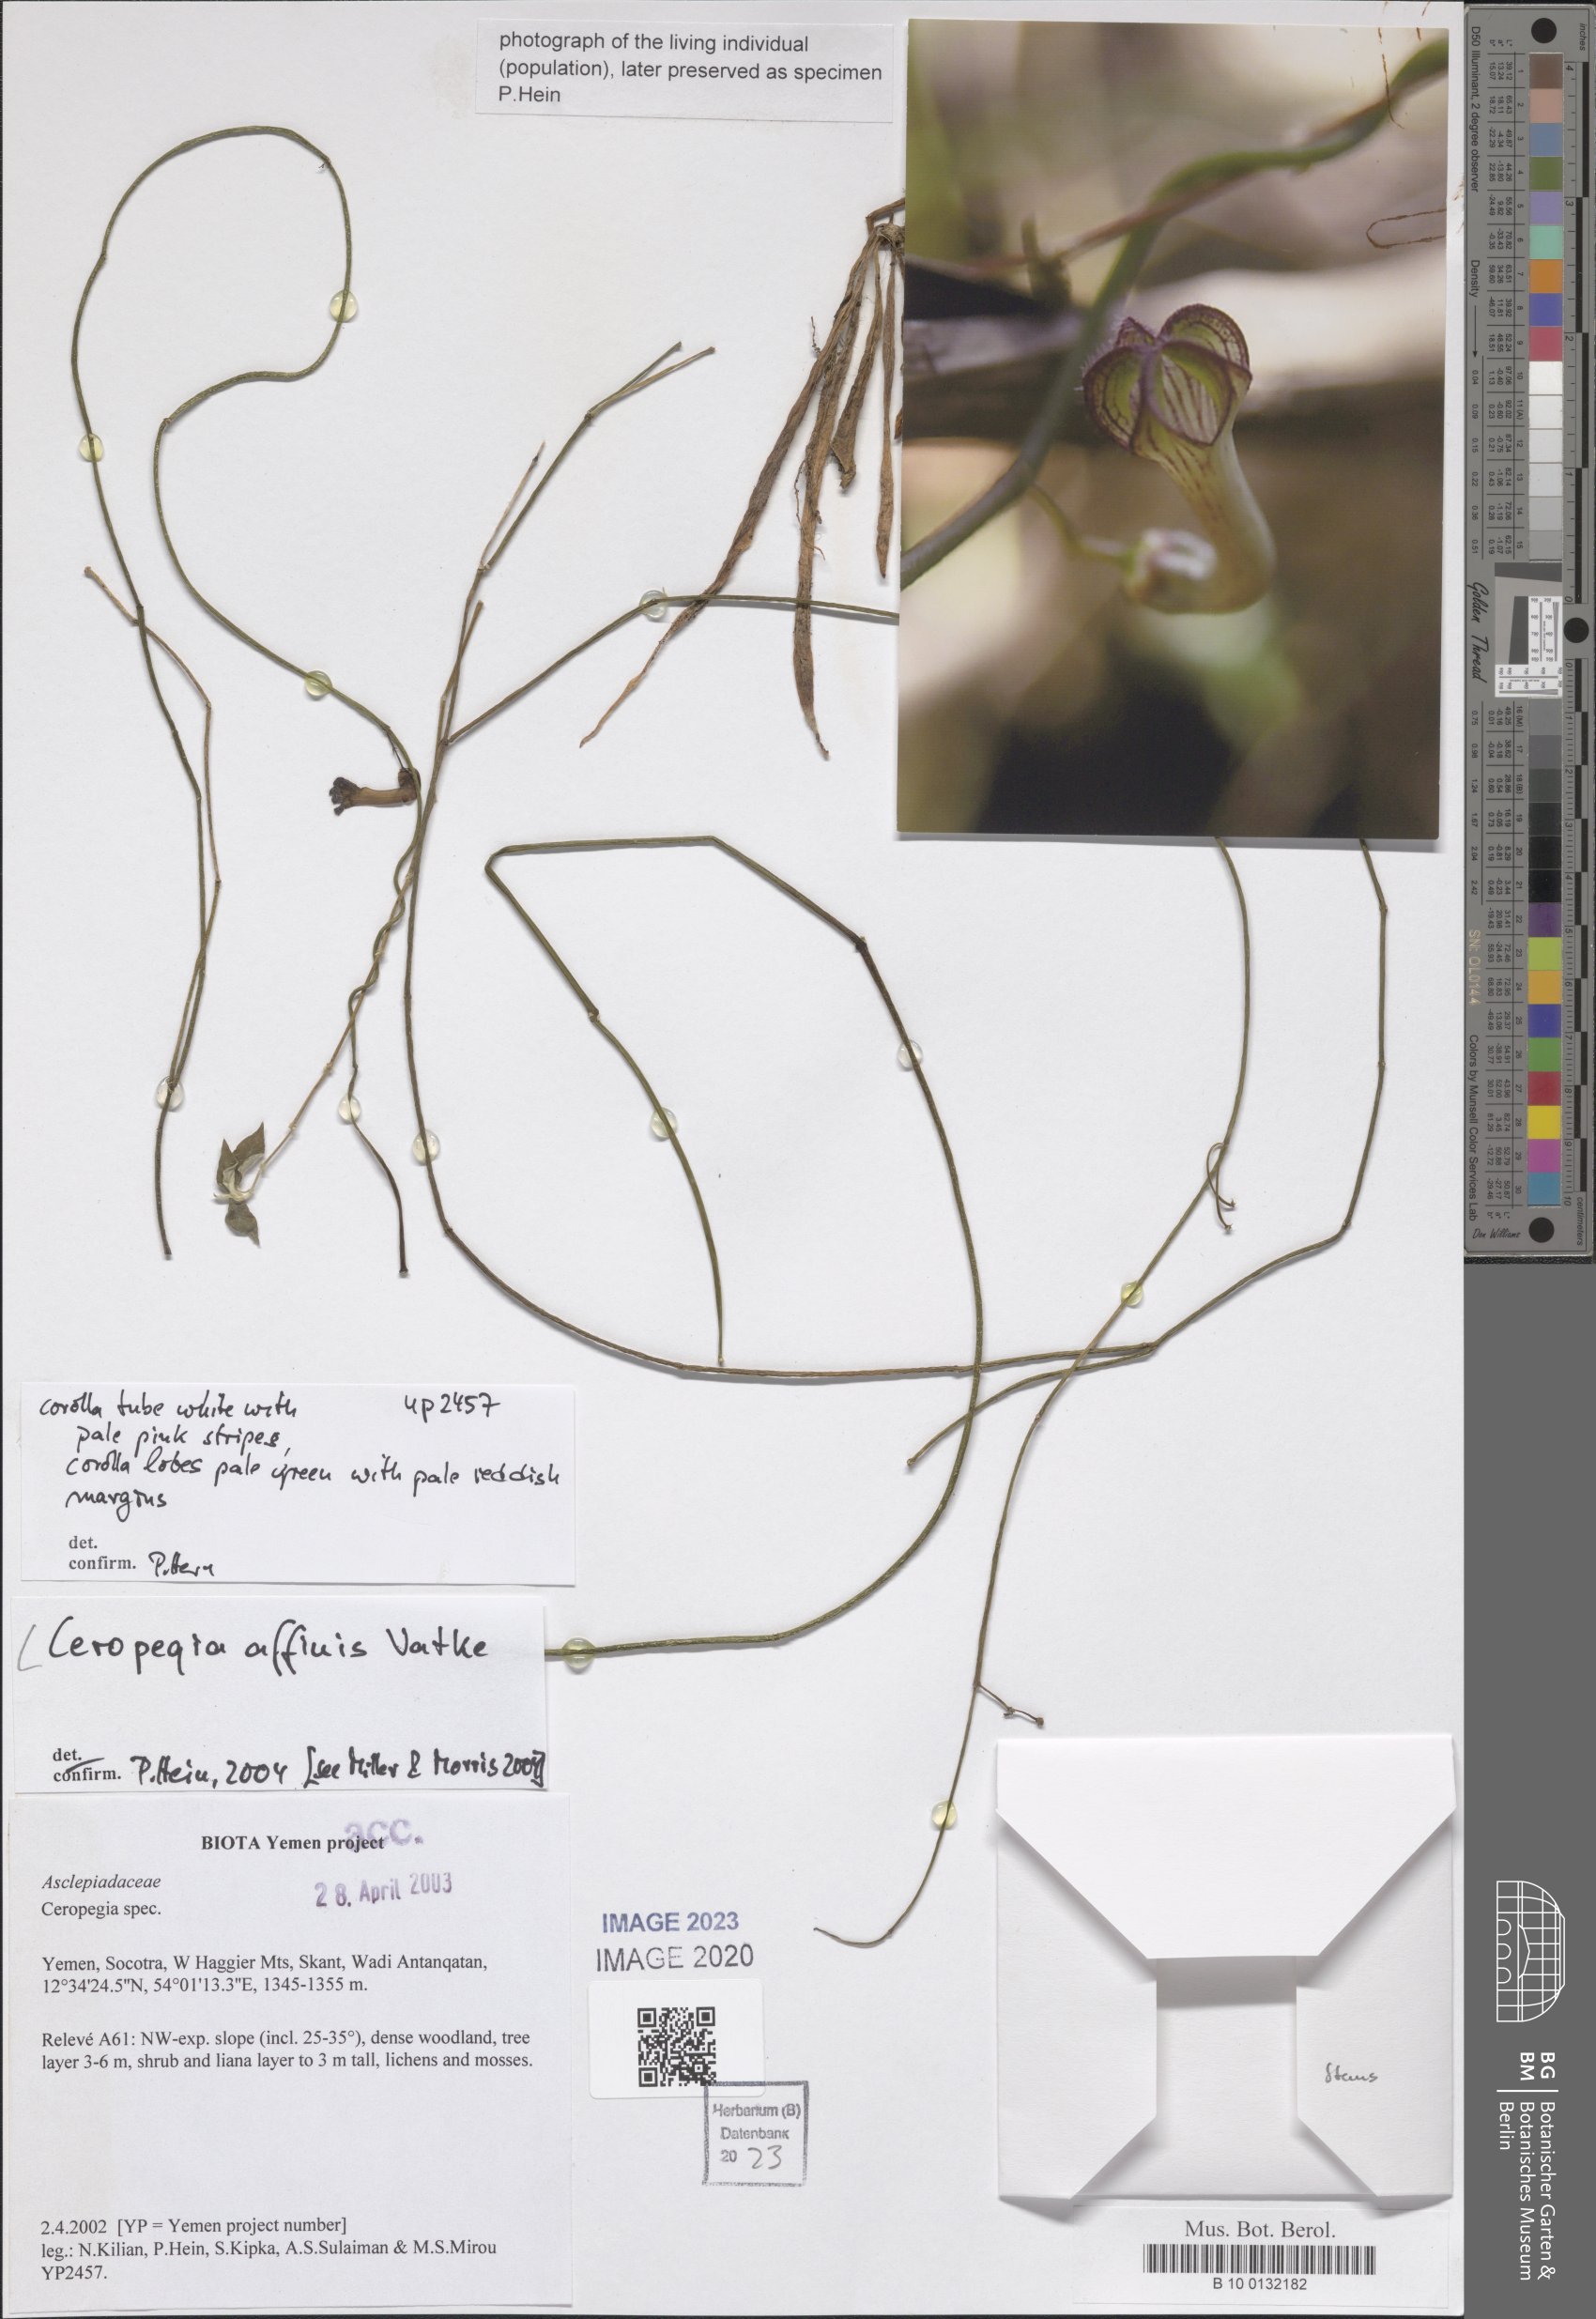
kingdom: Plantae
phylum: Tracheophyta
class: Magnoliopsida
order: Gentianales
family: Apocynaceae
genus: Ceropegia
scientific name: Ceropegia affinis
